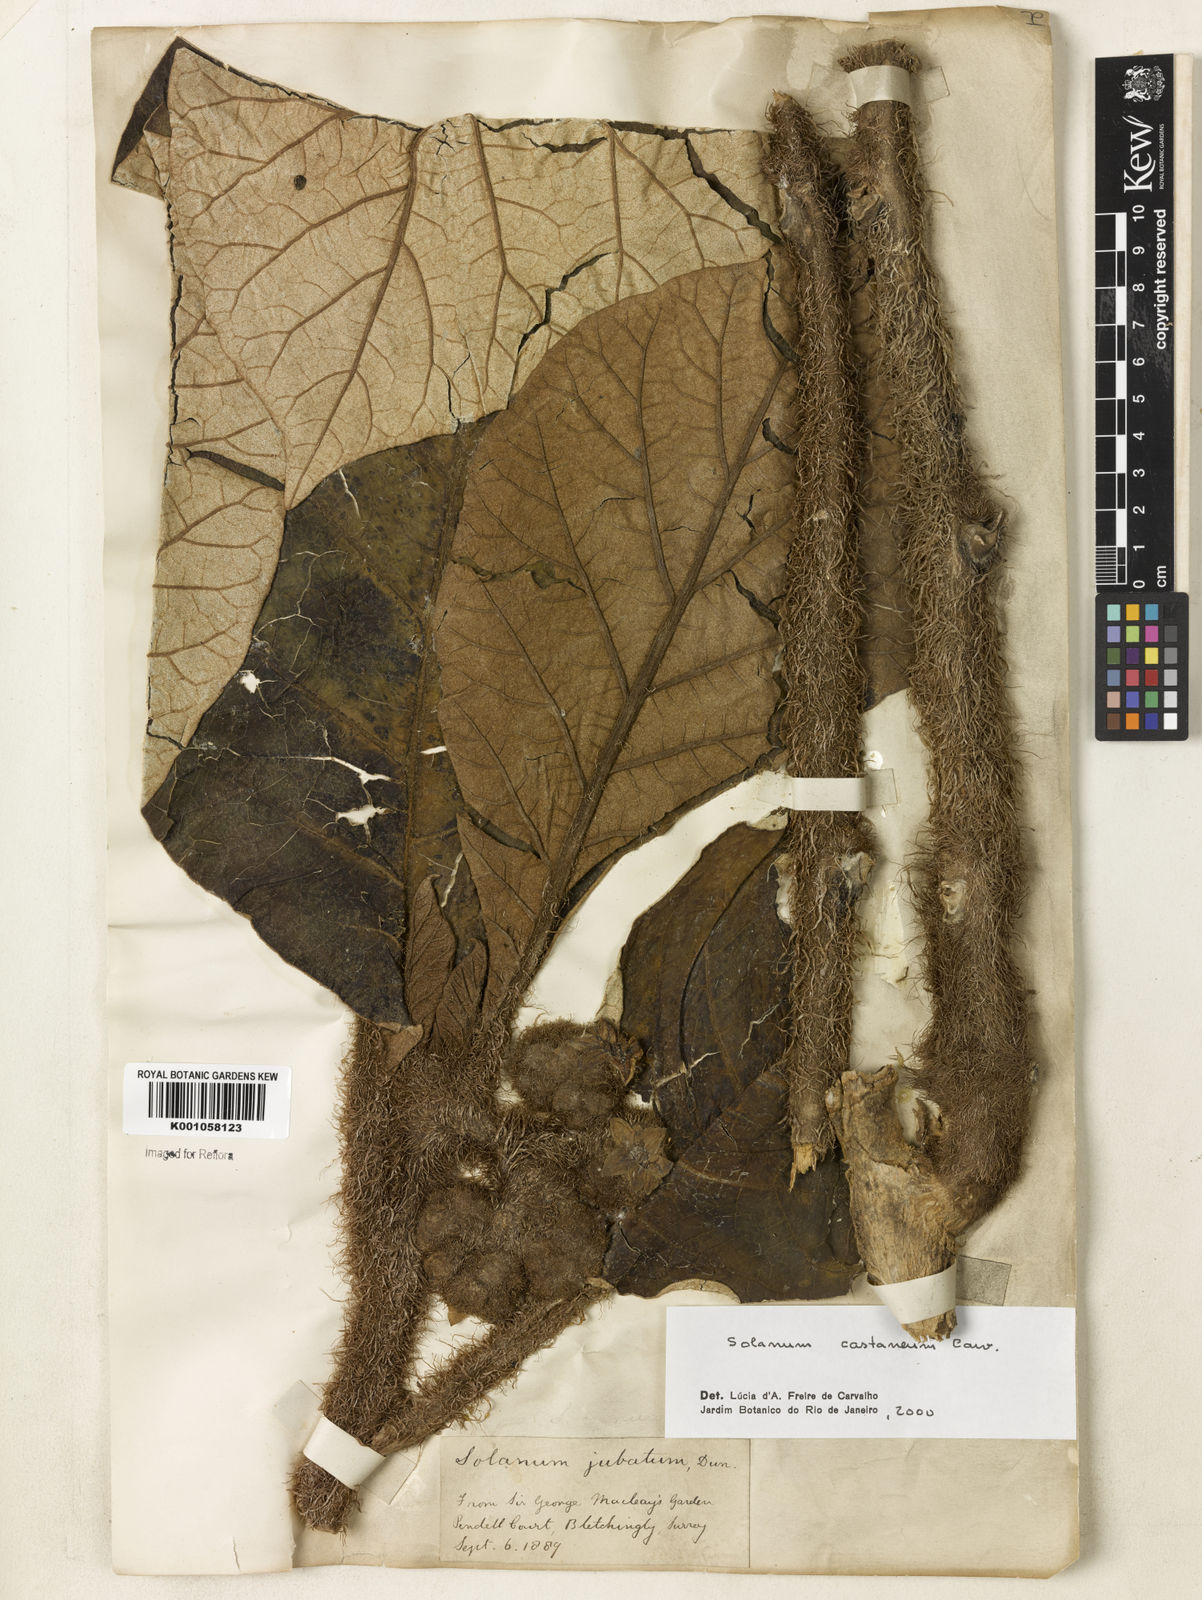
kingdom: Plantae
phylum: Tracheophyta
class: Magnoliopsida
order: Solanales
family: Solanaceae
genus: Solanum
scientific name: Solanum castaneum
